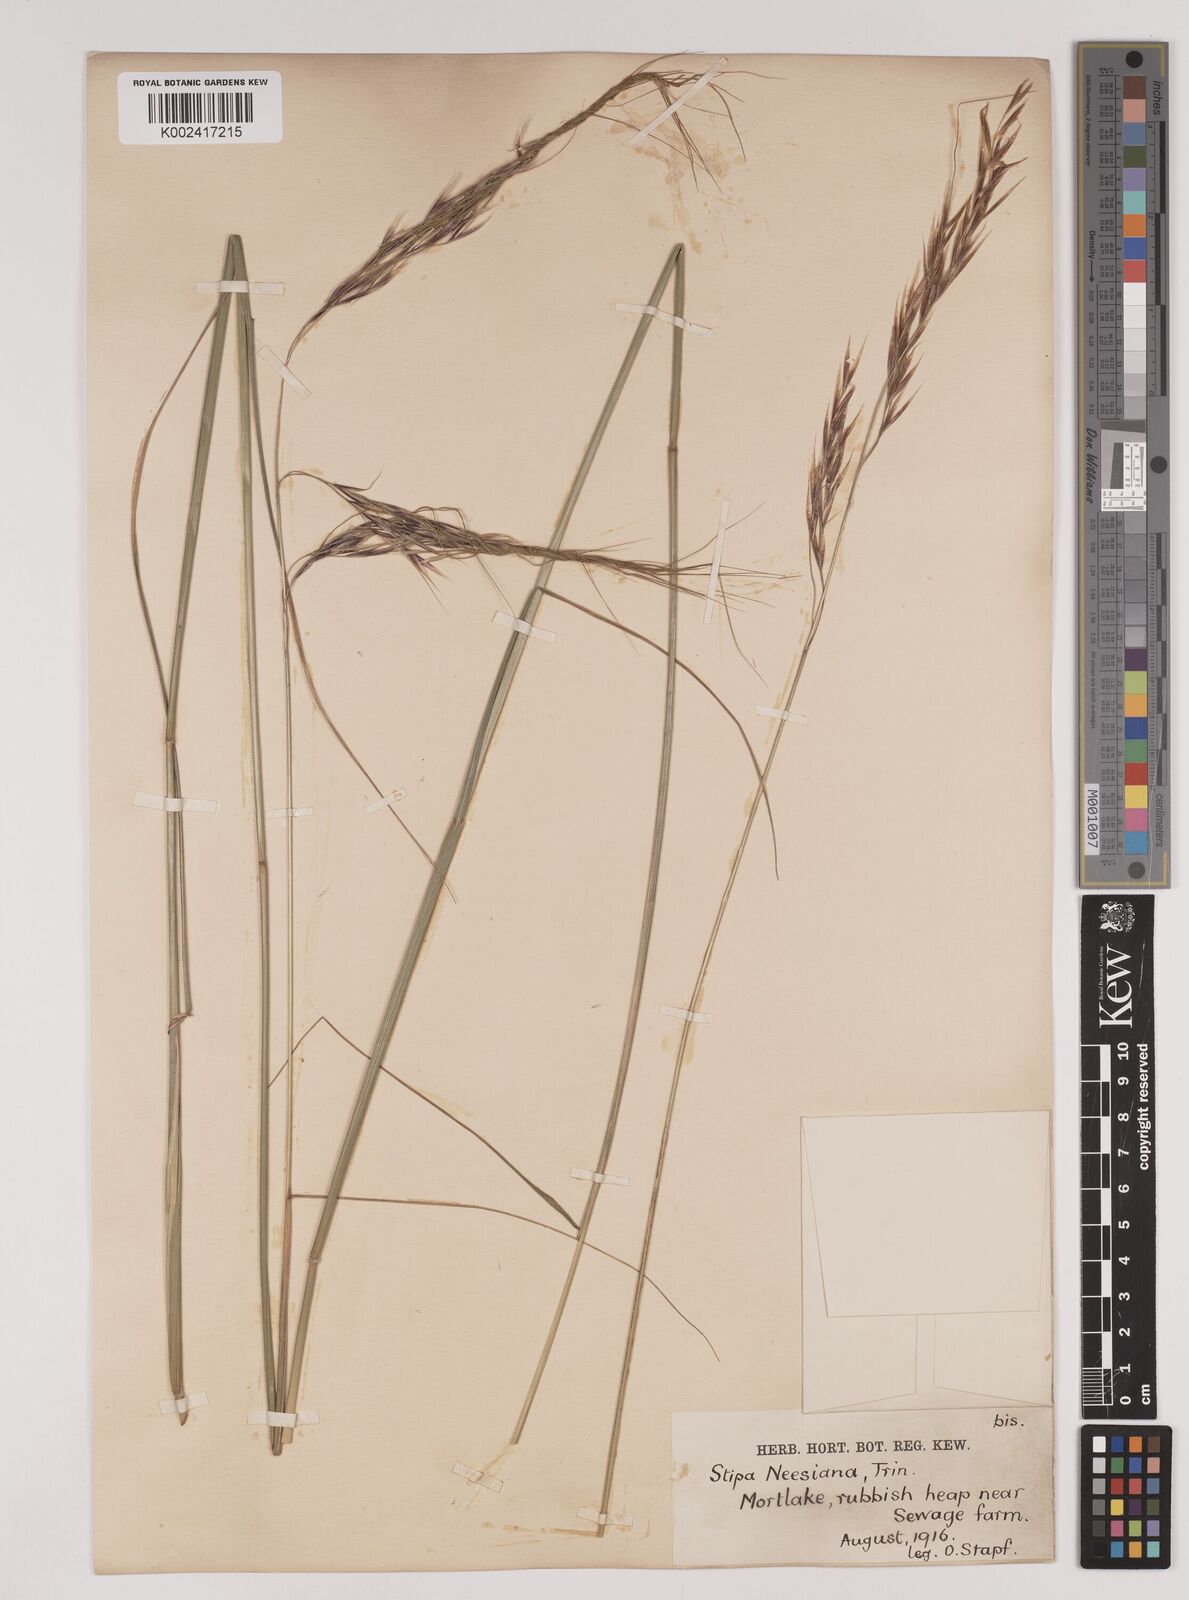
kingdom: Plantae
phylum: Tracheophyta
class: Liliopsida
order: Poales
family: Poaceae
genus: Nassella
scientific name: Nassella neesiana
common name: American needle-grass
